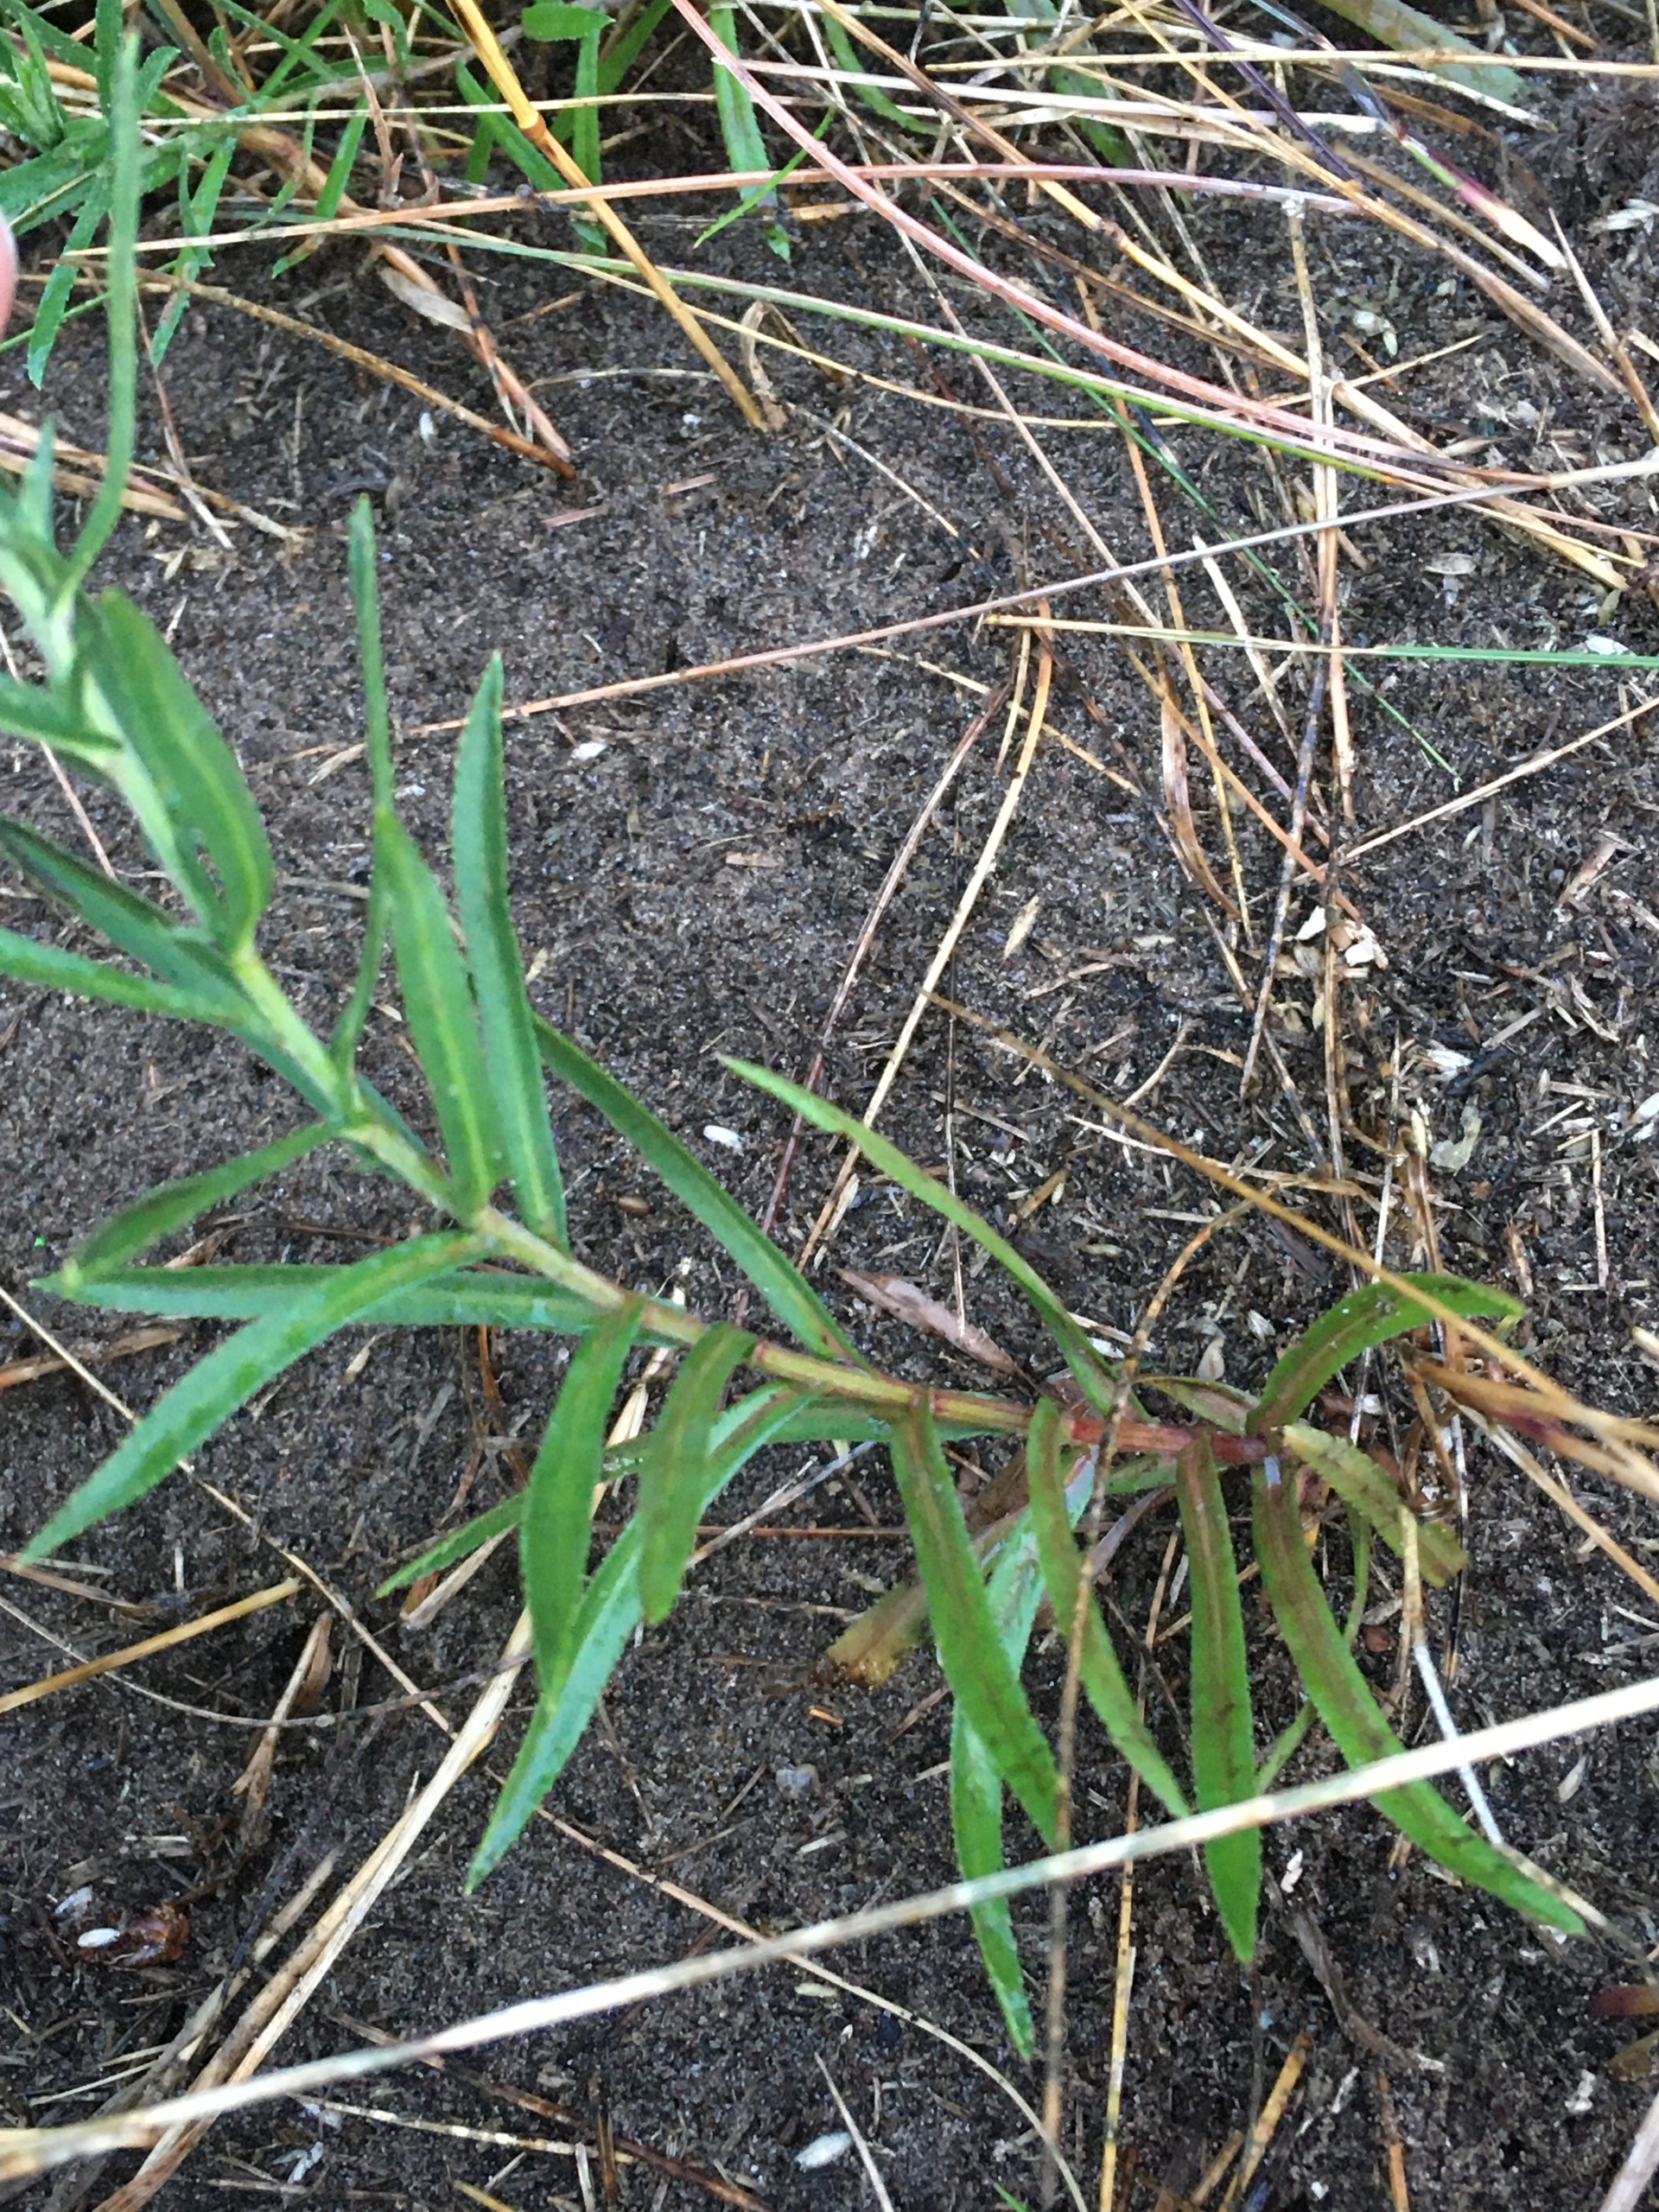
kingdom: Plantae
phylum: Tracheophyta
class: Magnoliopsida
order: Asterales
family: Asteraceae
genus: Achillea
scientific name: Achillea ptarmica
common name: Nyse-røllike
